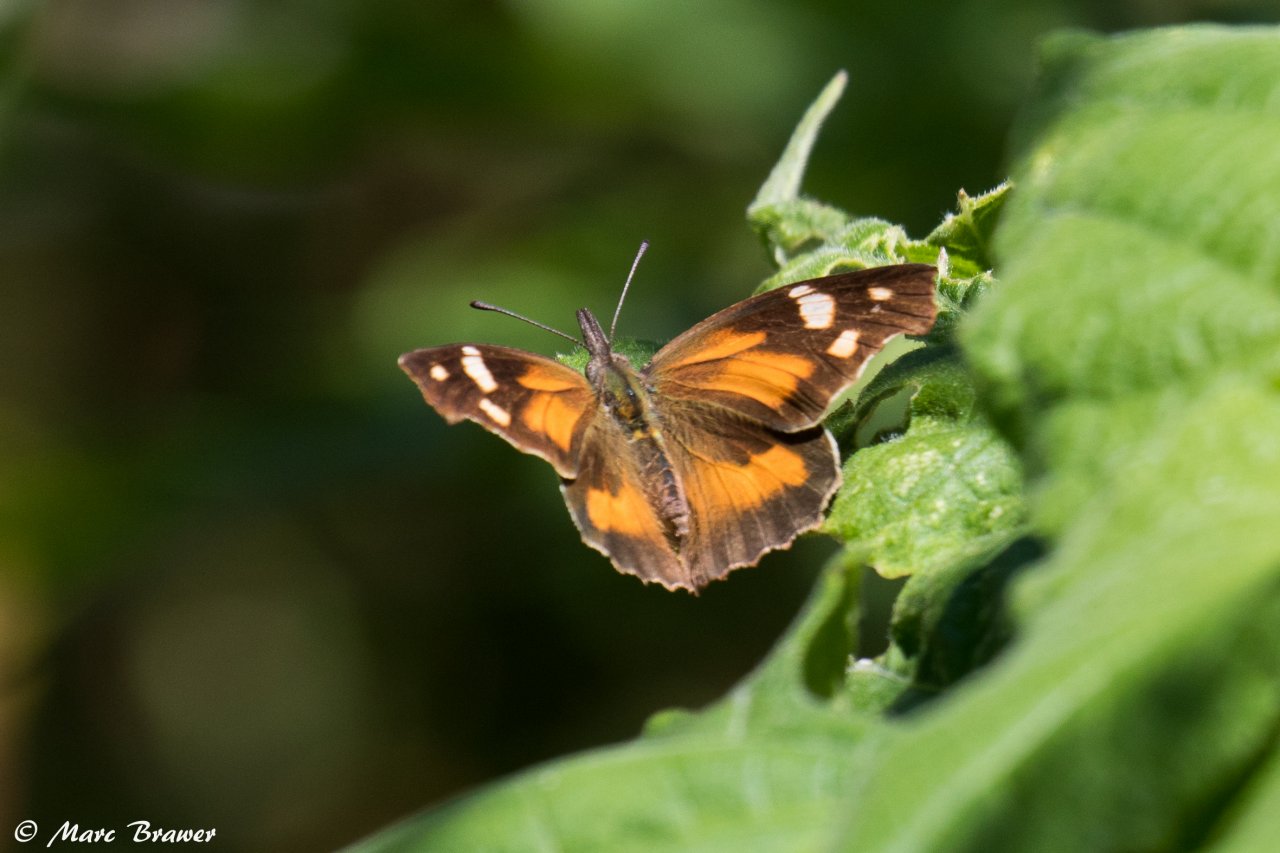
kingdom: Animalia
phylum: Arthropoda
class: Insecta
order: Lepidoptera
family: Nymphalidae
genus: Libytheana
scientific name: Libytheana carinenta
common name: American Snout
